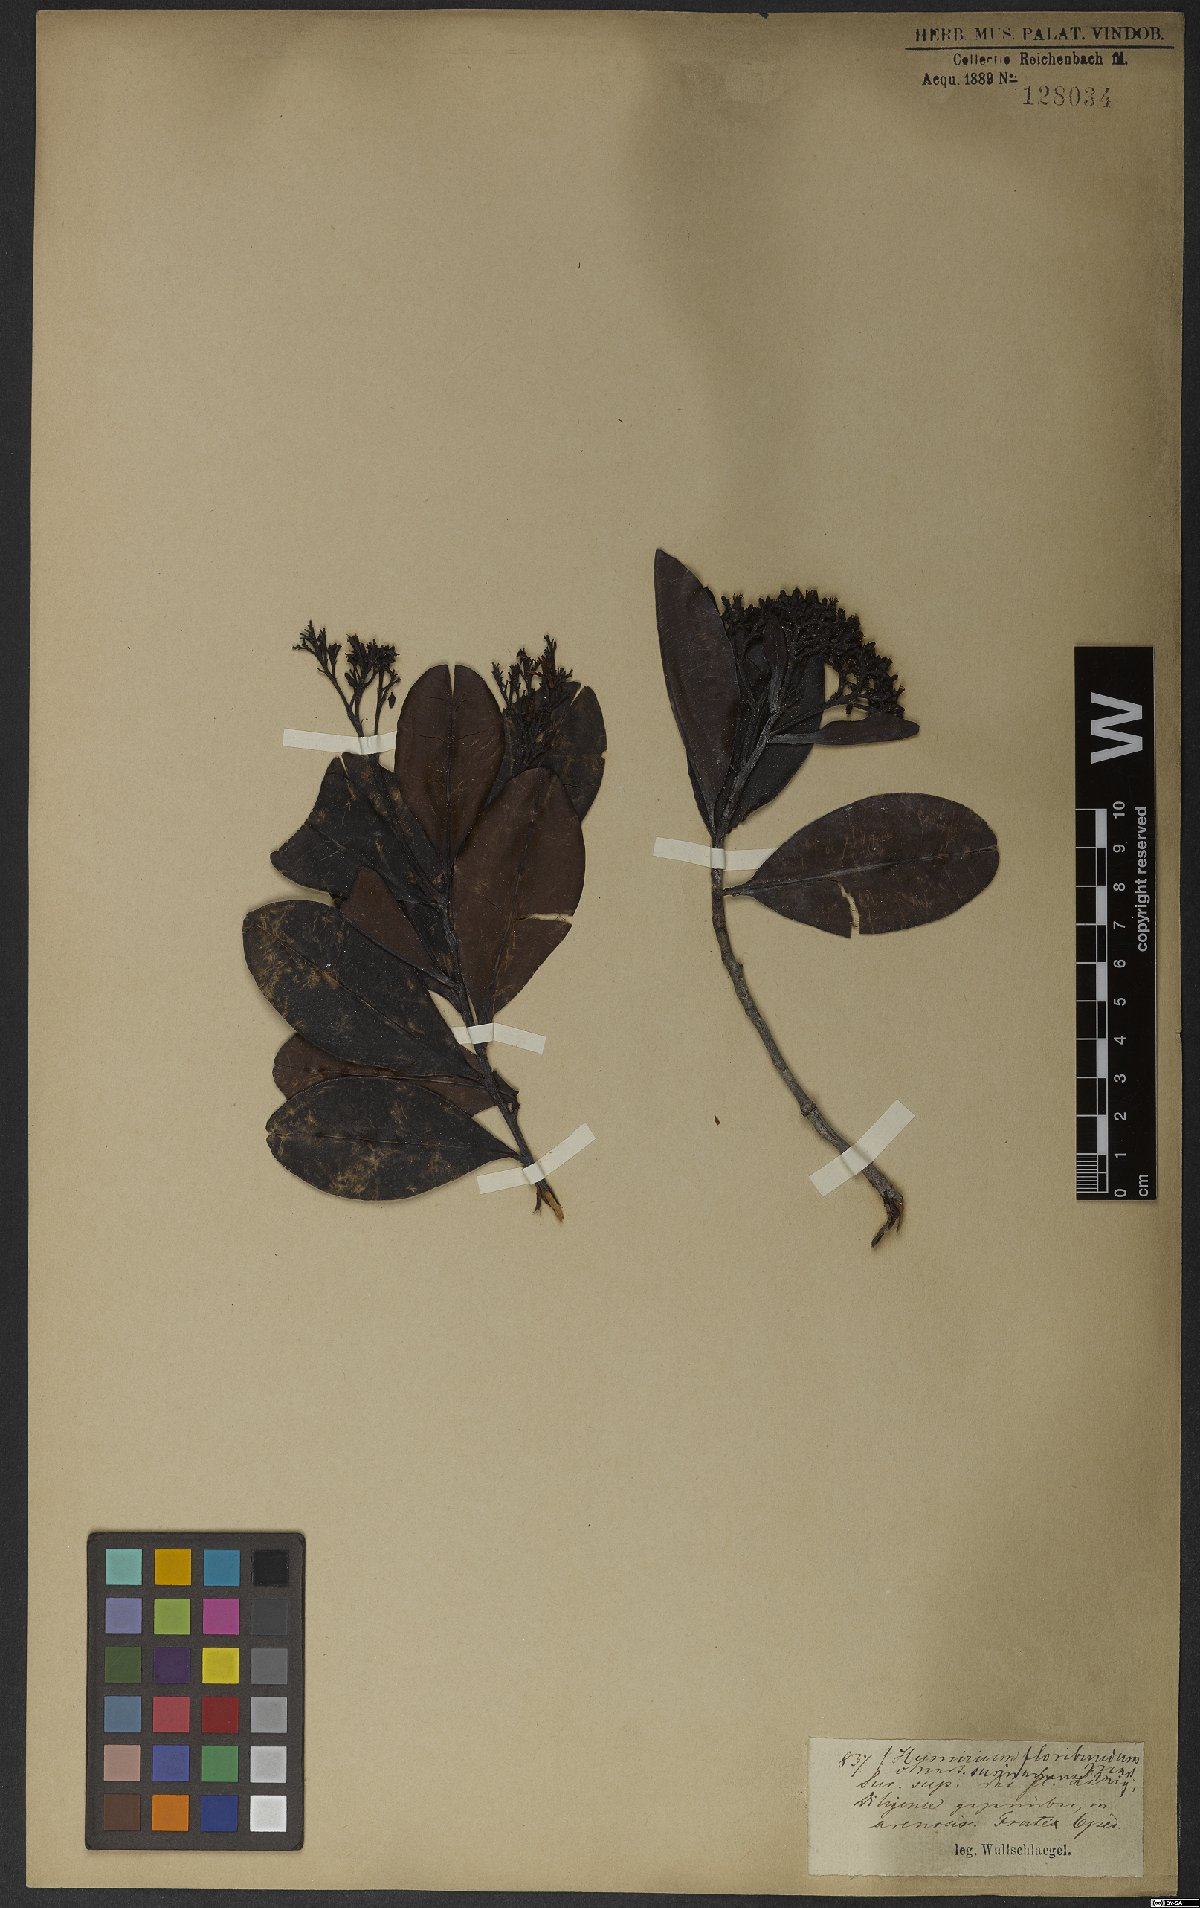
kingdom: Plantae
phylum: Tracheophyta
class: Magnoliopsida
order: Malpighiales
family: Humiriaceae
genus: Humiria
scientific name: Humiria balsamifera
